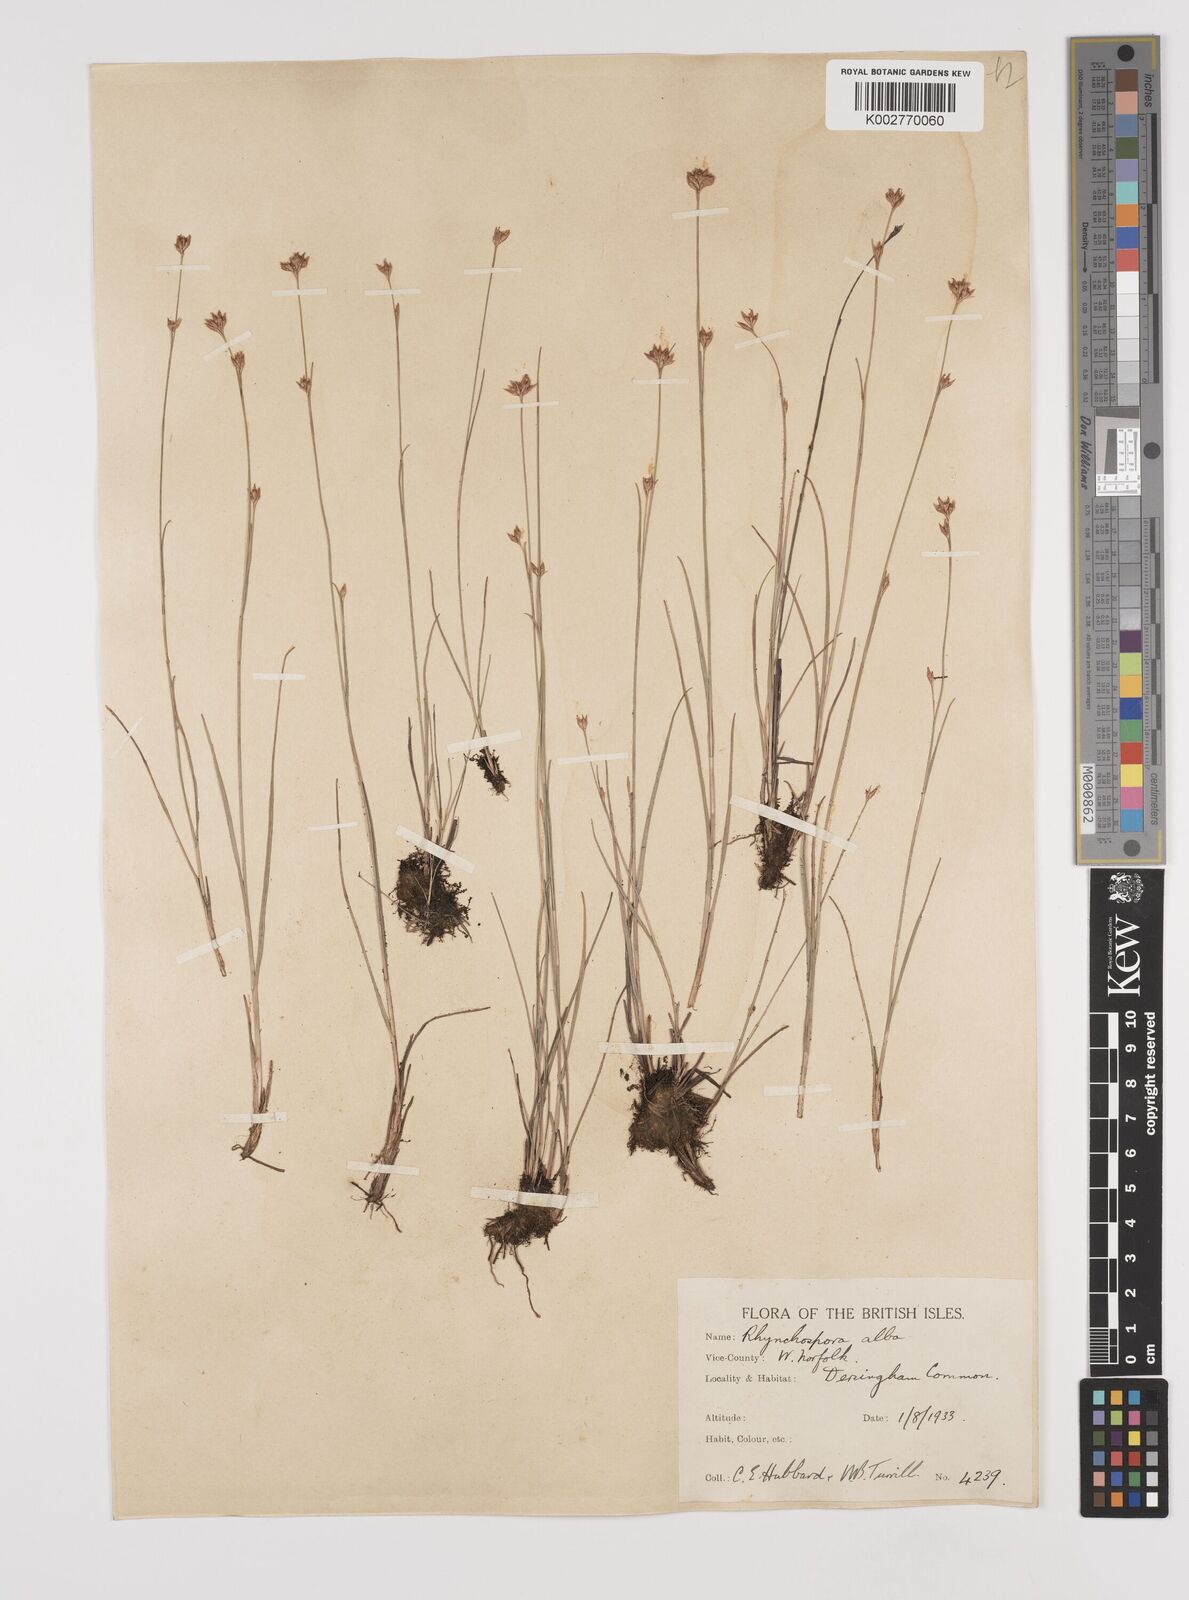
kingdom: Plantae
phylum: Tracheophyta
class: Liliopsida
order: Poales
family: Cyperaceae
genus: Rhynchospora
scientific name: Rhynchospora alba
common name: White beak-sedge
